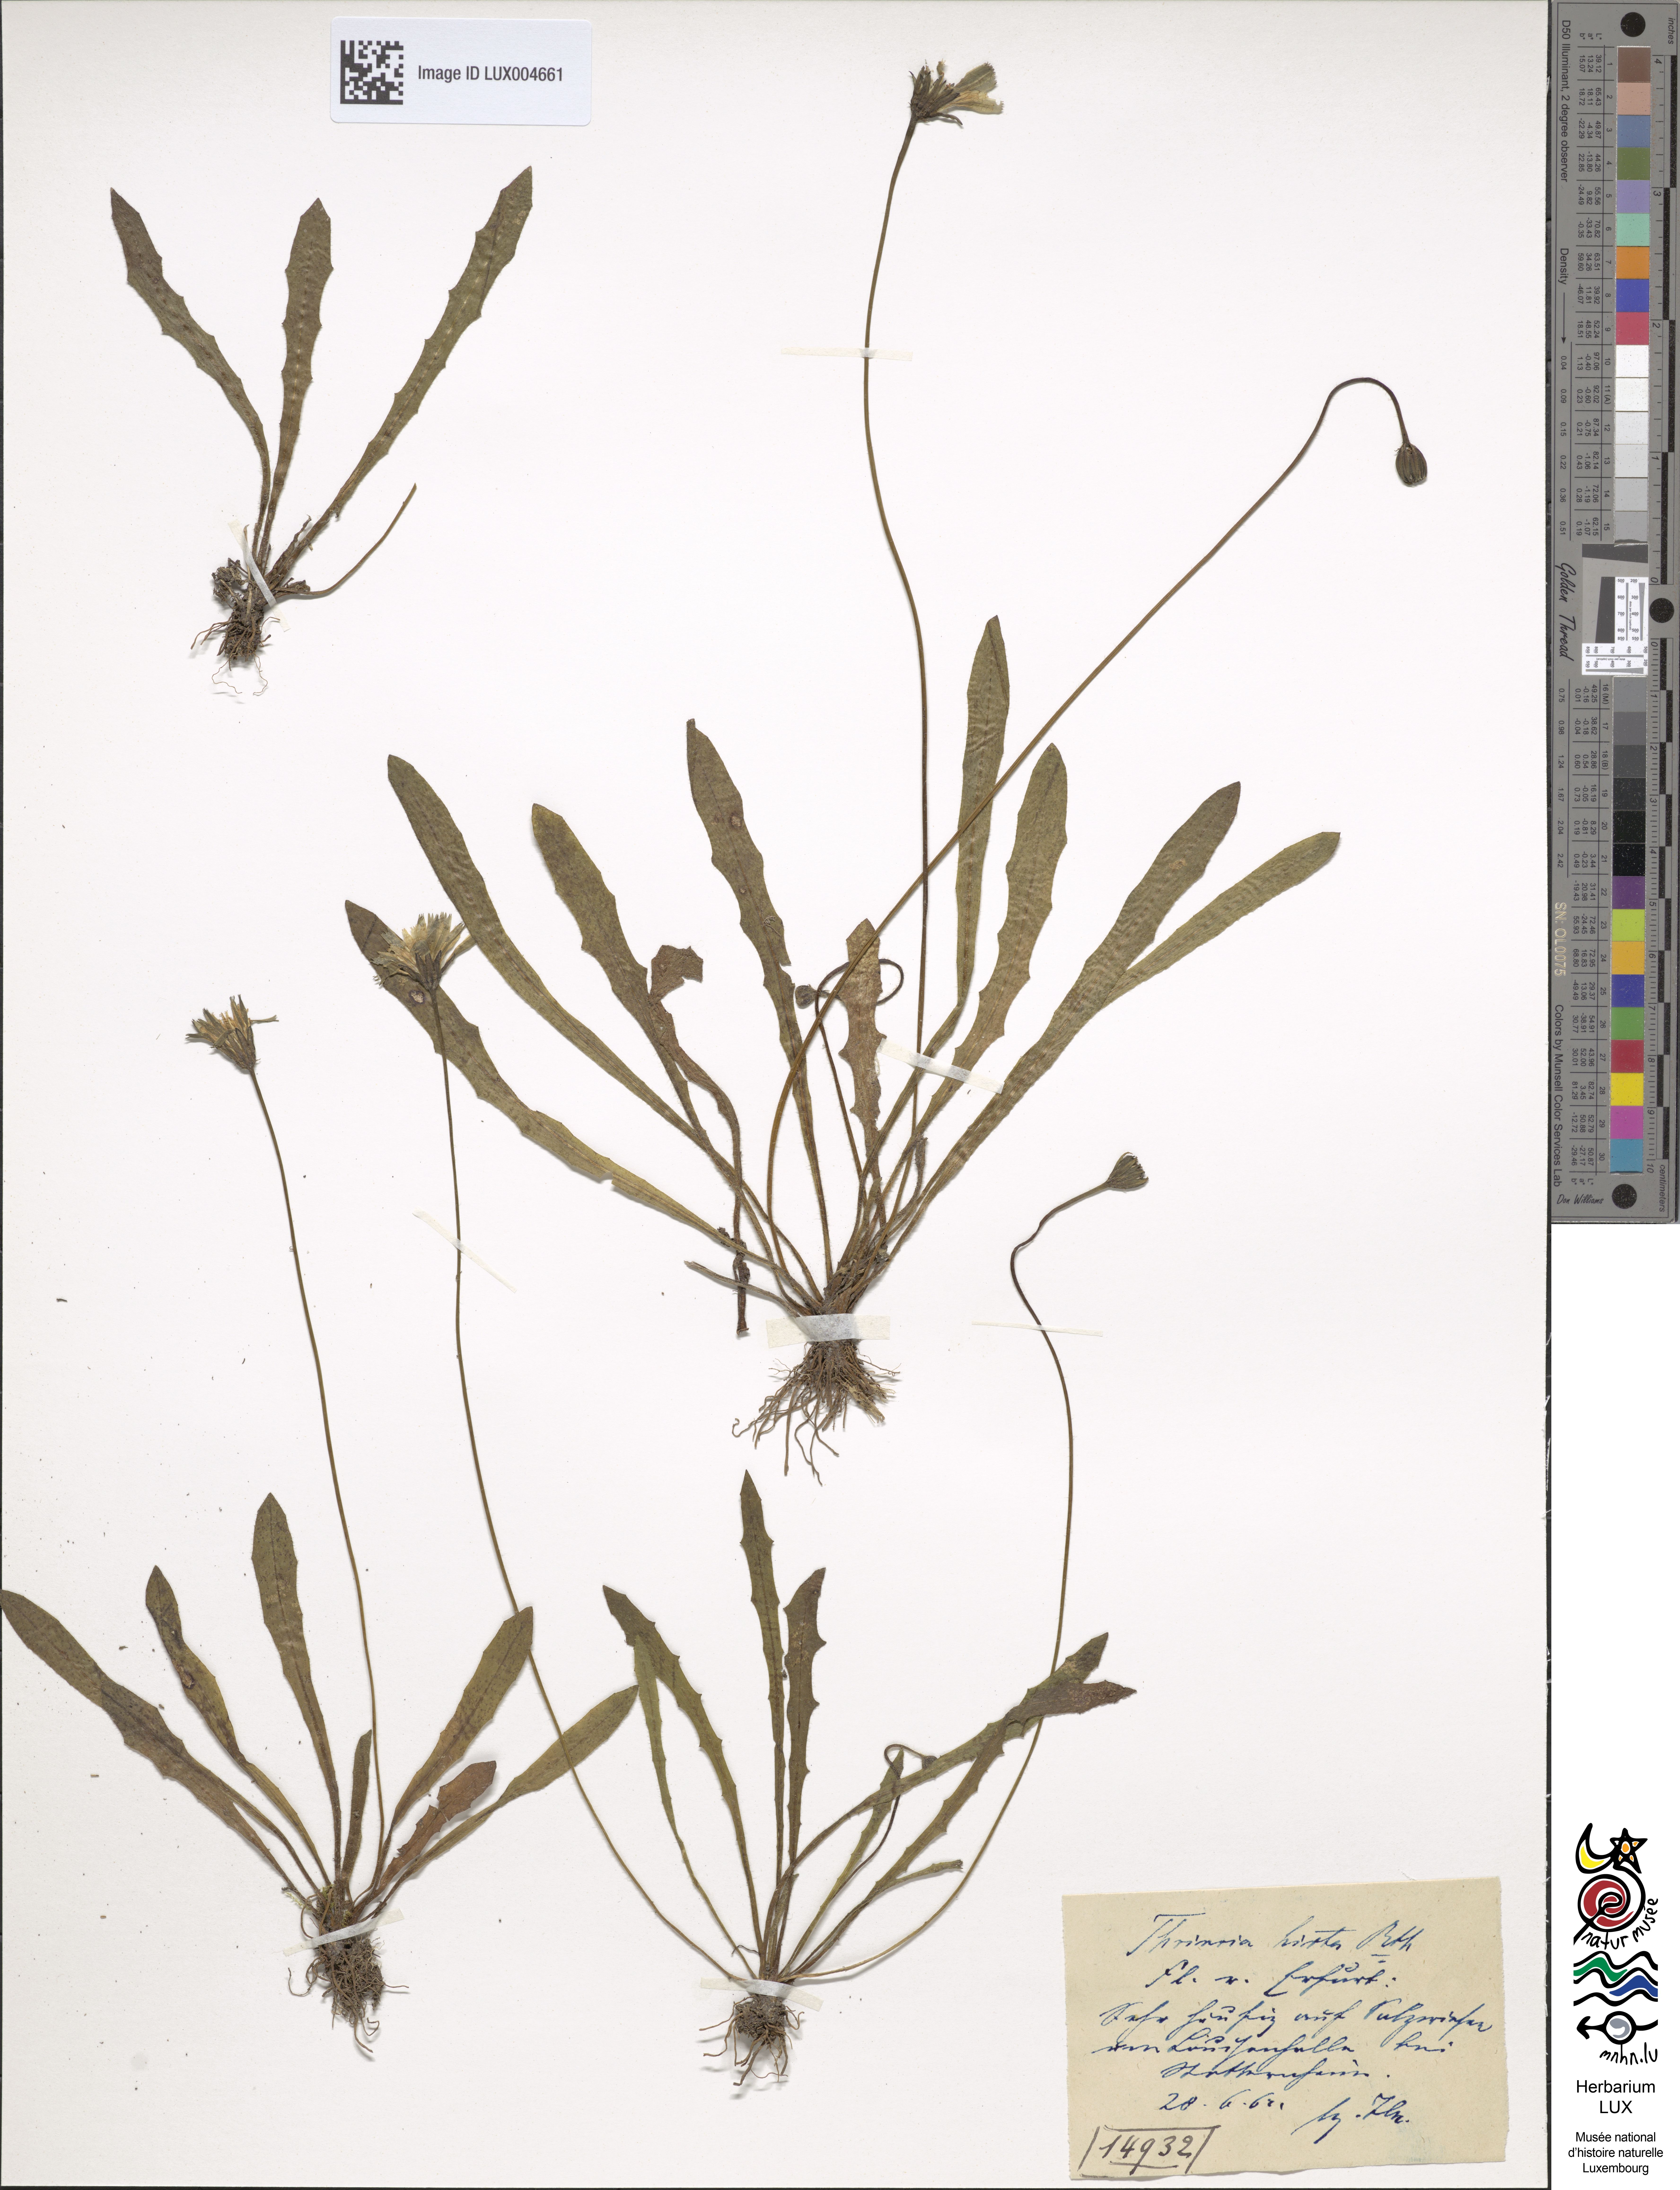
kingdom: Plantae
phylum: Tracheophyta
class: Magnoliopsida
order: Asterales
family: Asteraceae
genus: Leontodon
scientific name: Leontodon hirtus
